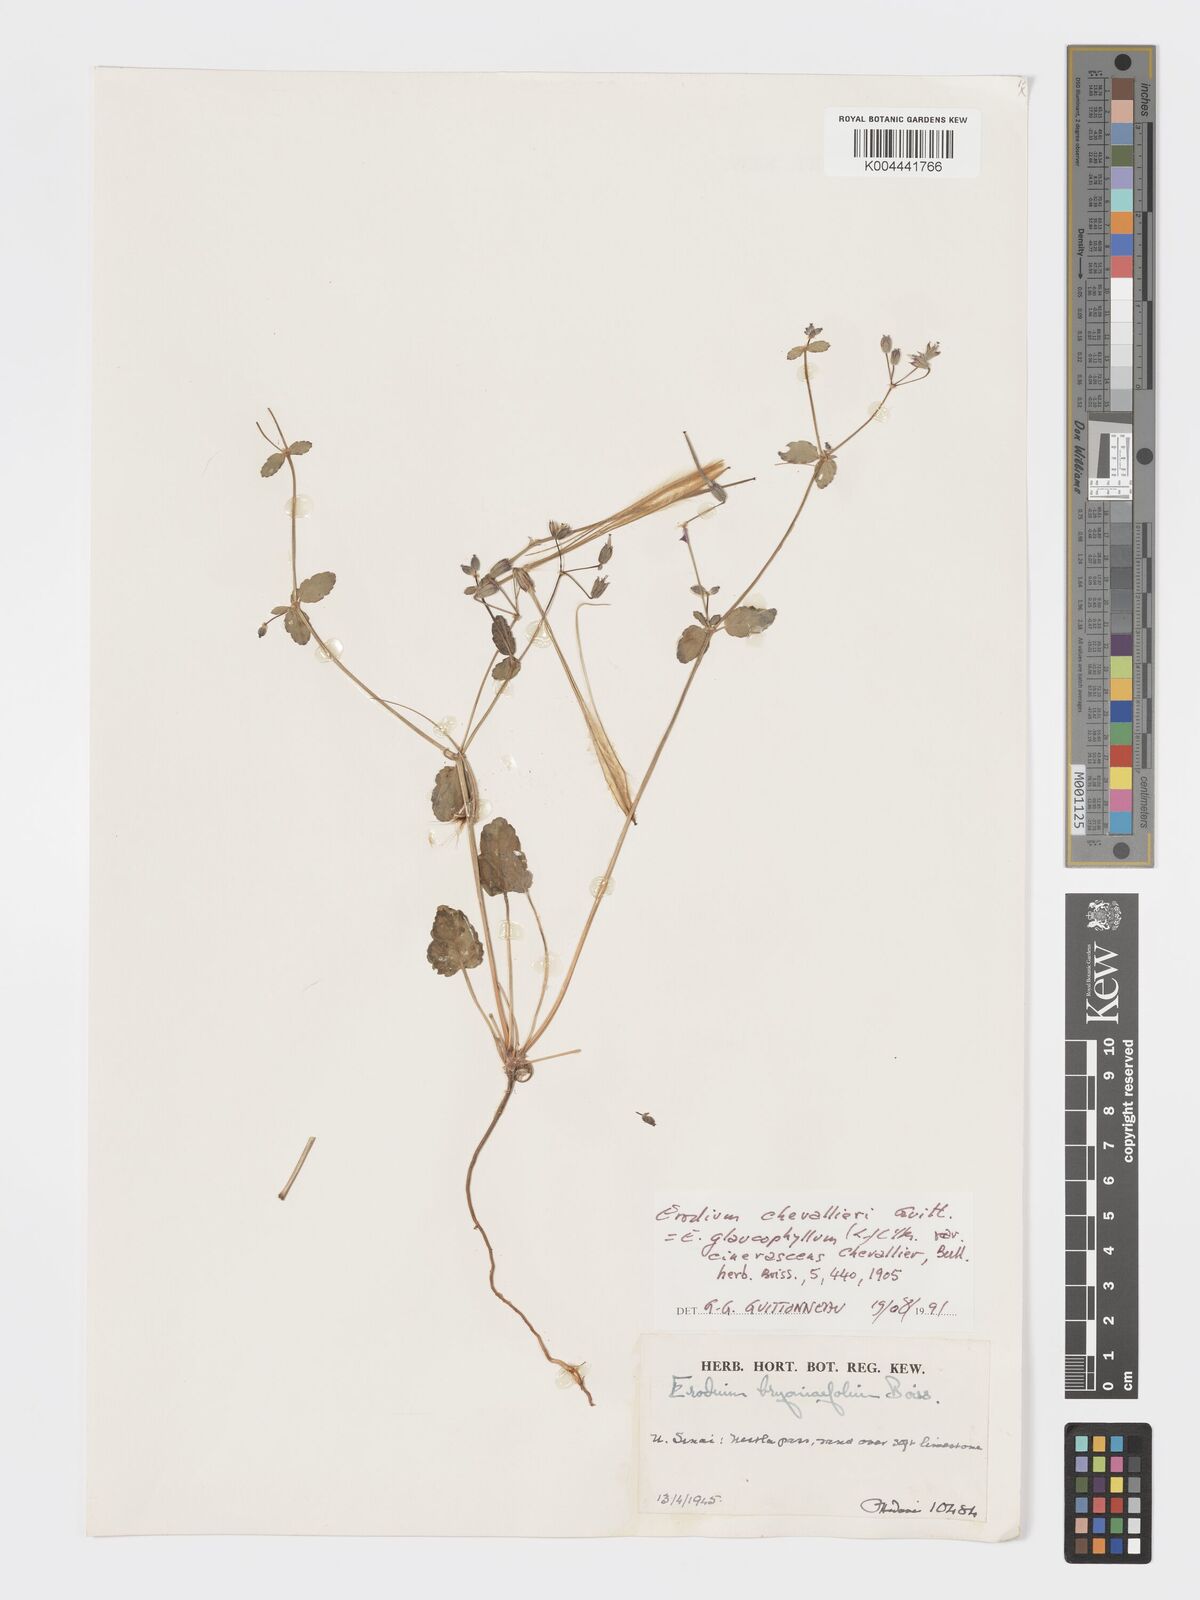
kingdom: Plantae
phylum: Tracheophyta
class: Magnoliopsida
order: Geraniales
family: Geraniaceae
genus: Erodium
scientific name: Erodium chevallieri
